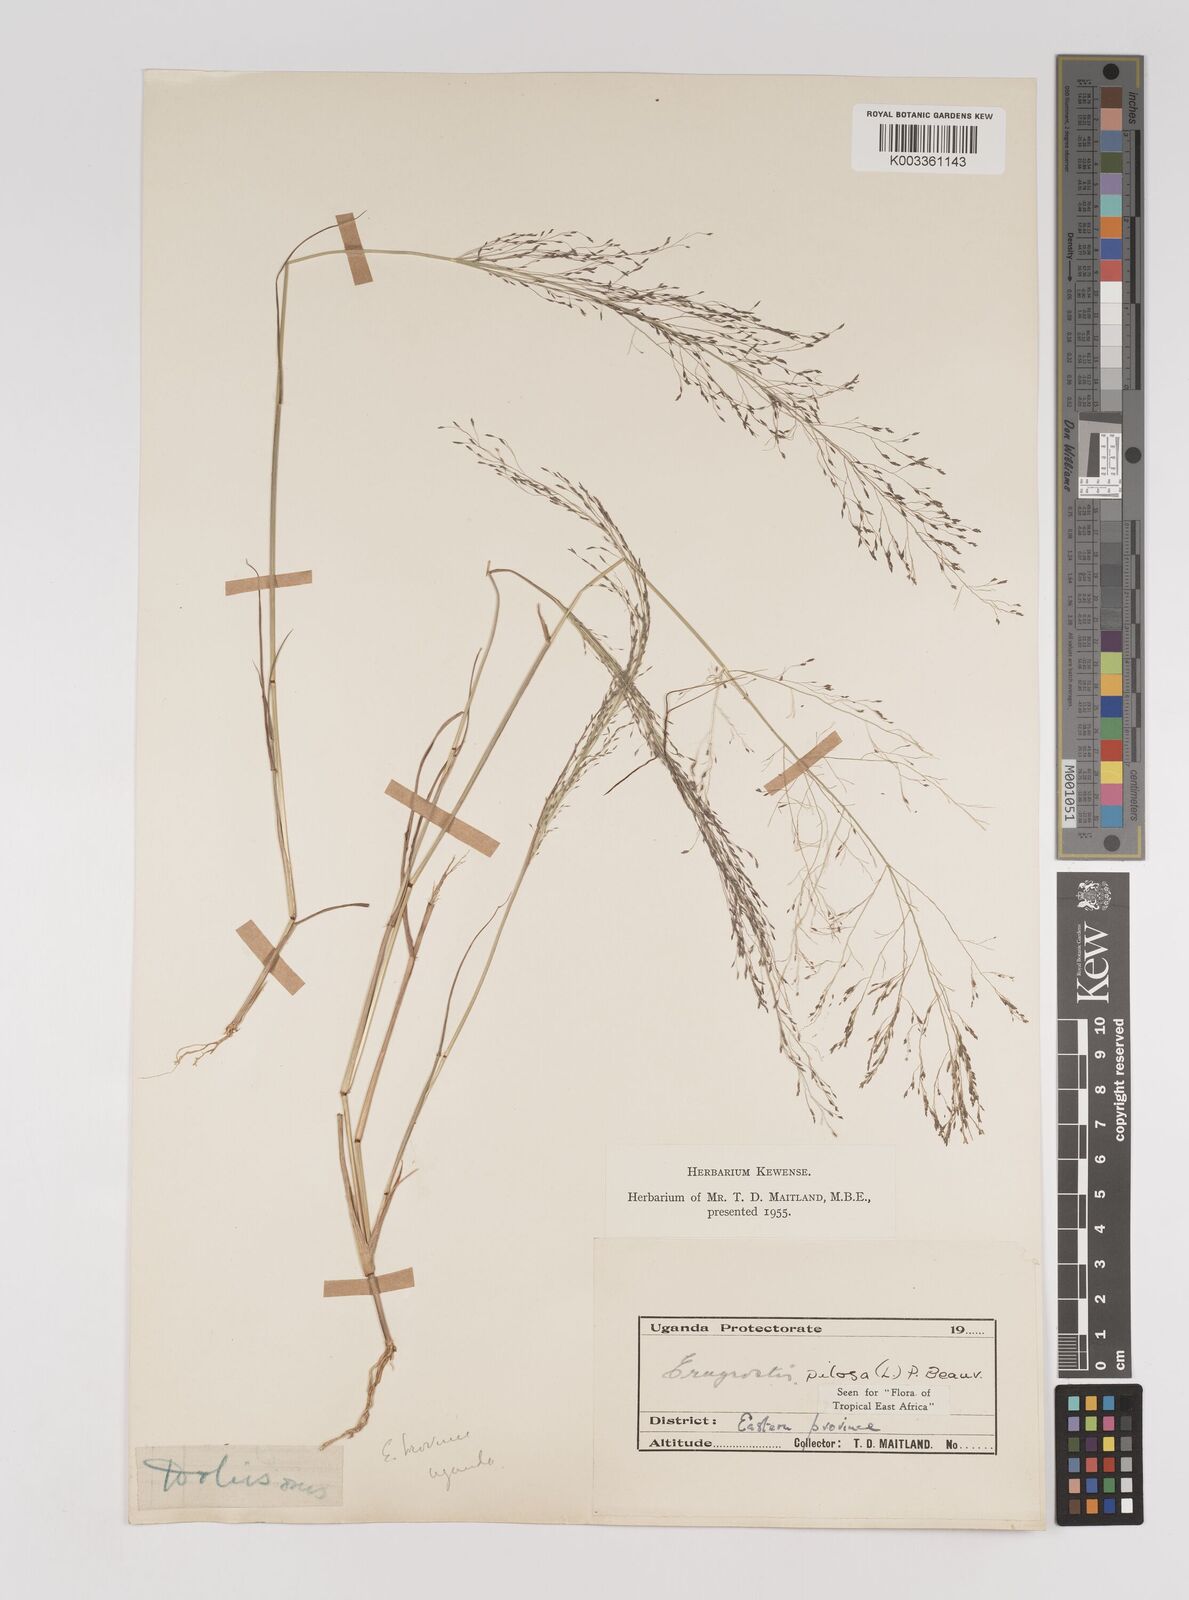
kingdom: Plantae
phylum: Tracheophyta
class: Liliopsida
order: Poales
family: Poaceae
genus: Eragrostis
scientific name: Eragrostis pilosa
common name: Indian lovegrass
